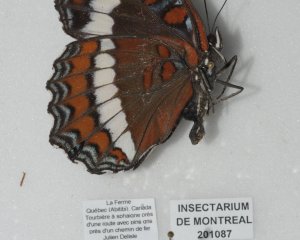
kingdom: Animalia
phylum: Arthropoda
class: Insecta
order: Lepidoptera
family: Nymphalidae
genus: Limenitis
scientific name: Limenitis arthemis
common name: Red-spotted Admiral
